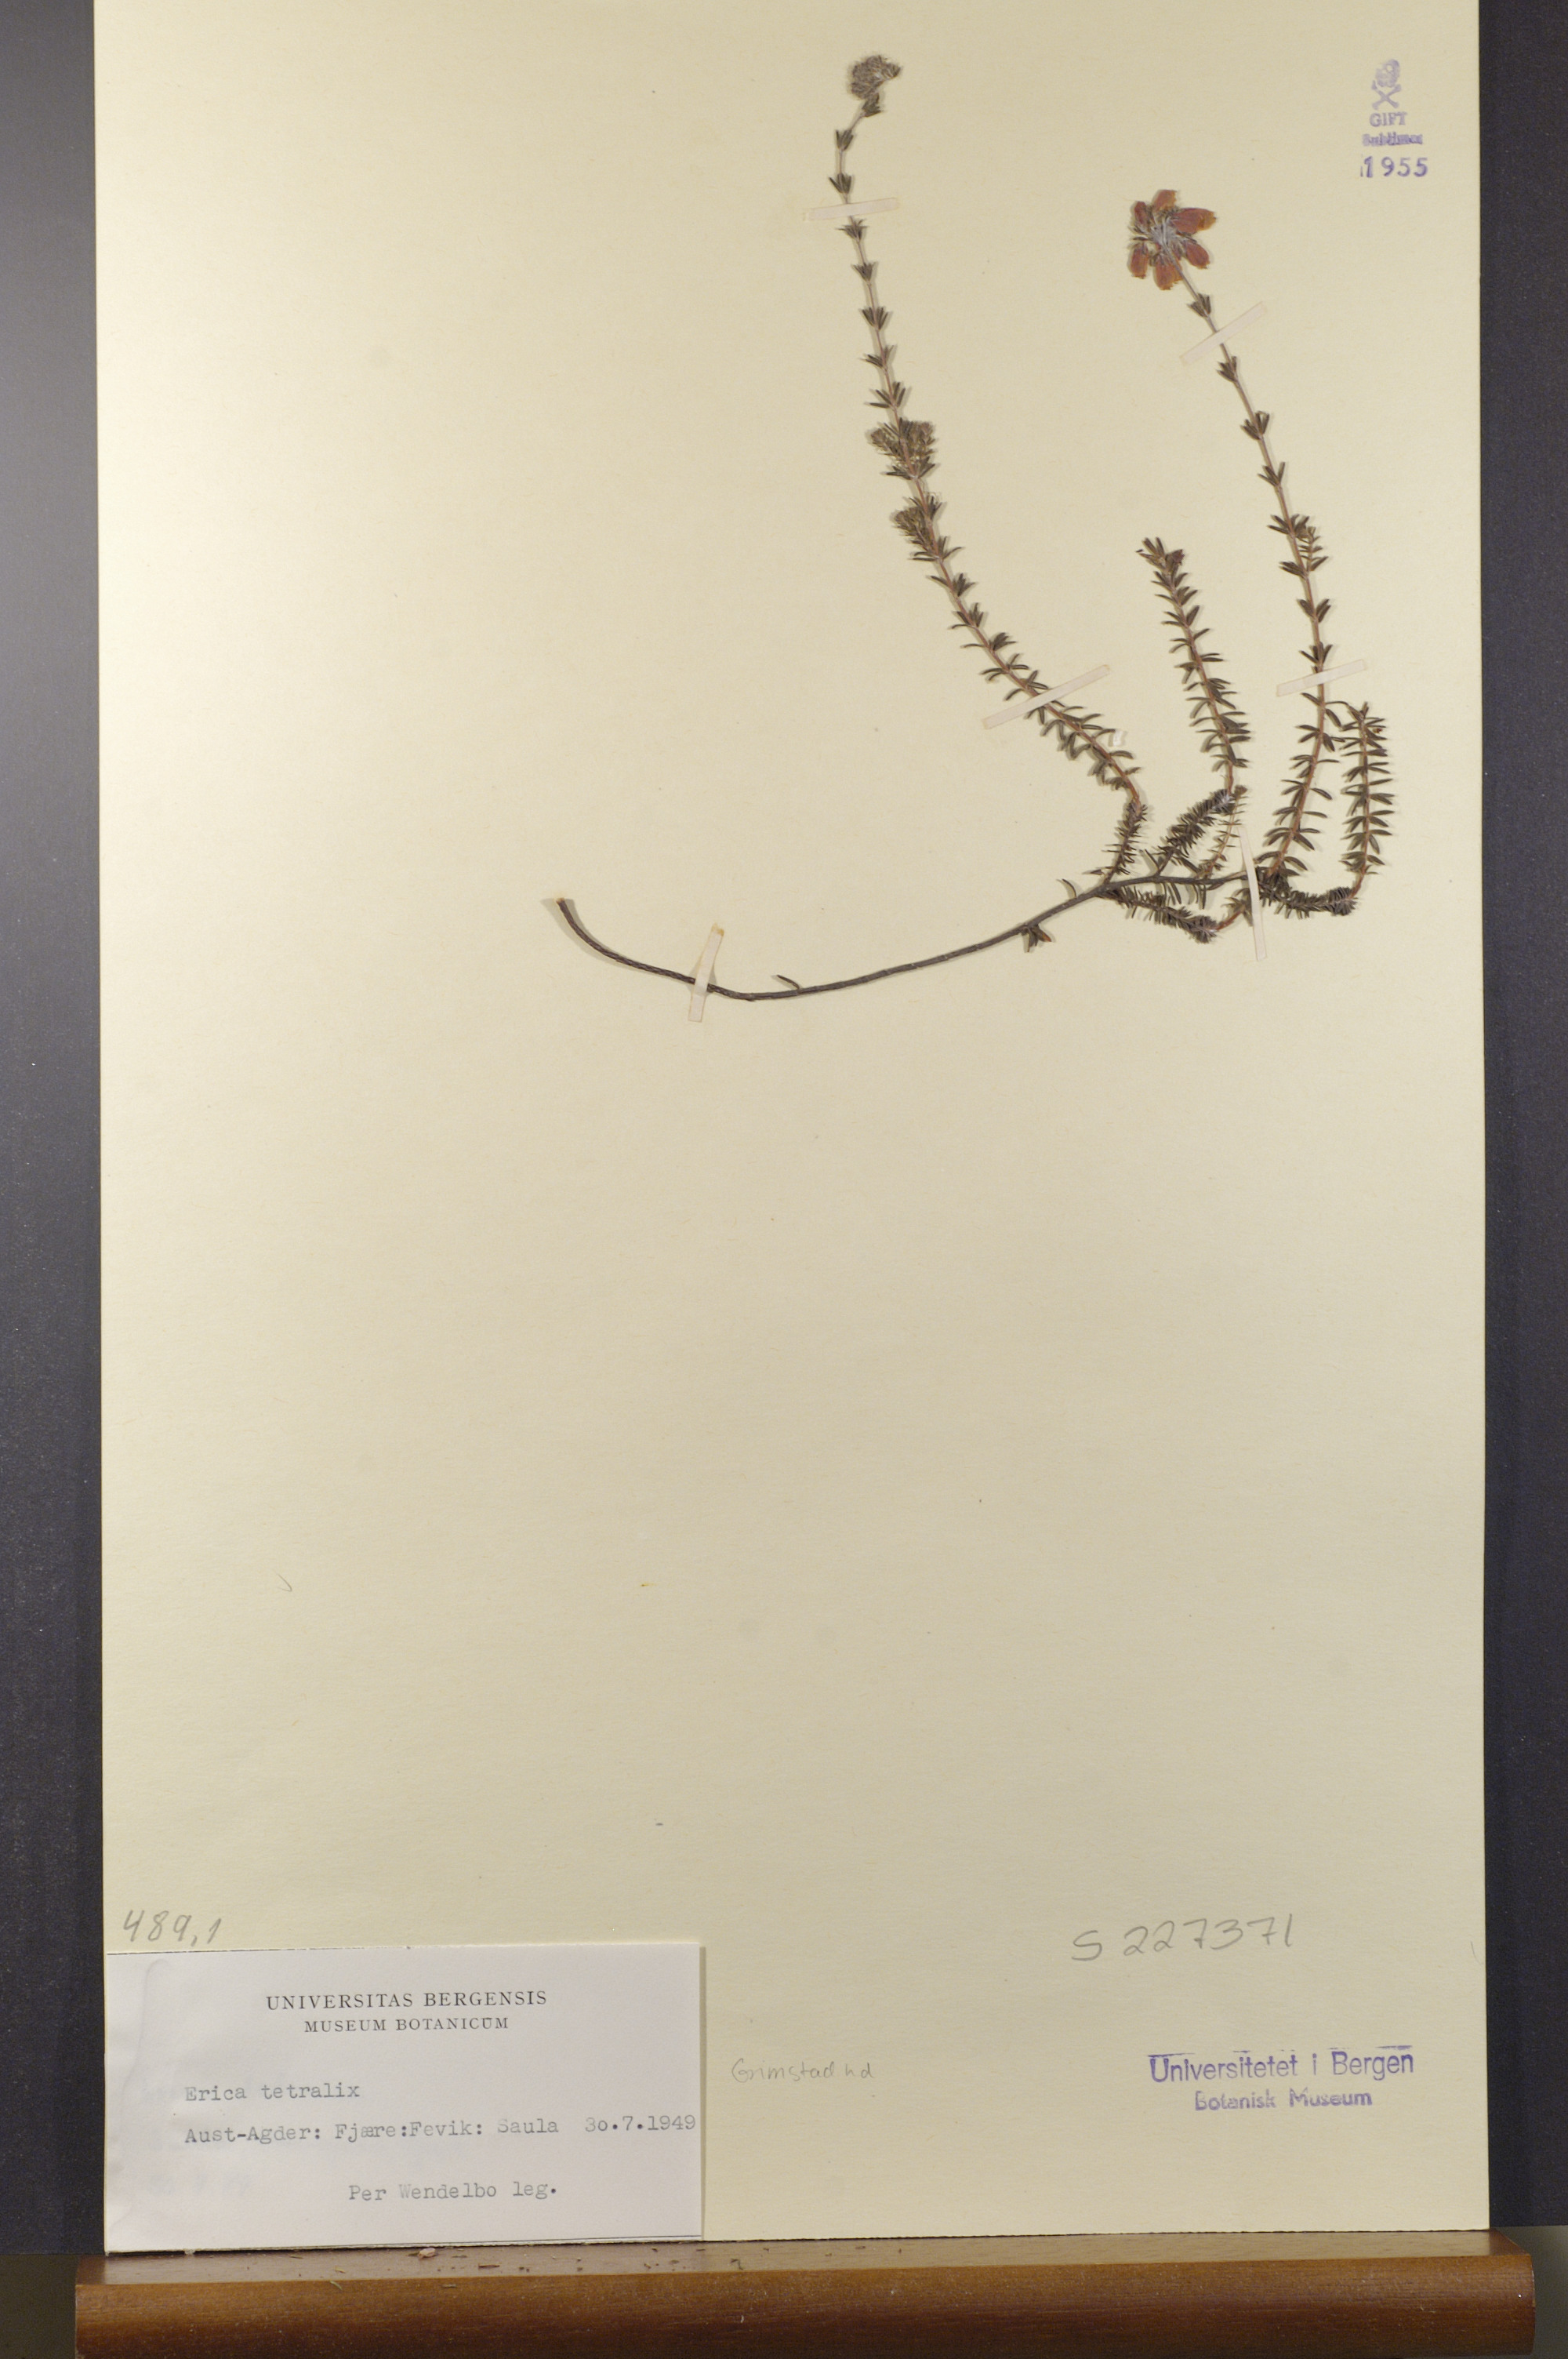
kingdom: Plantae
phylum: Tracheophyta
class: Magnoliopsida
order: Ericales
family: Ericaceae
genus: Erica
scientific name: Erica tetralix
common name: Cross-leaved heath
